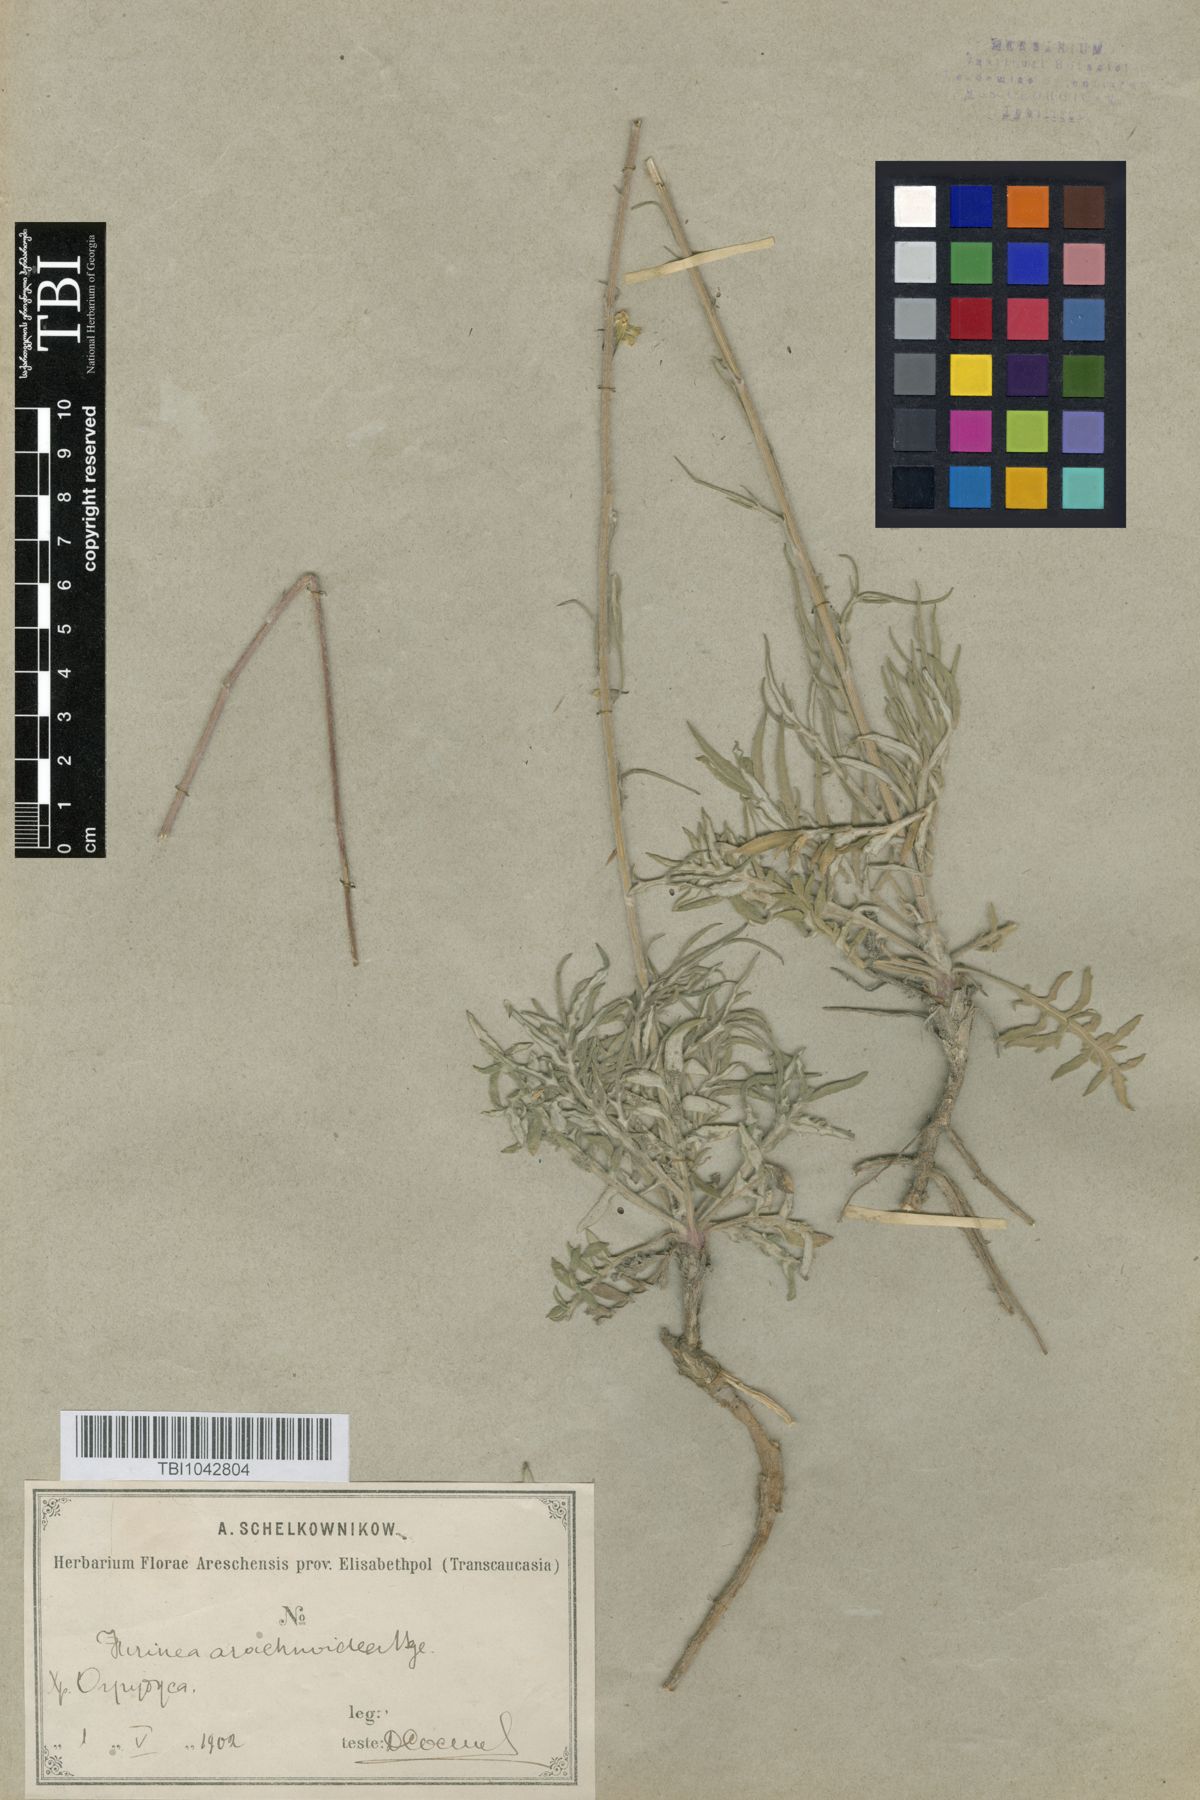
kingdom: Plantae
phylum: Tracheophyta
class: Magnoliopsida
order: Asterales
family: Asteraceae
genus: Jurinea
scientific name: Jurinea blanda
